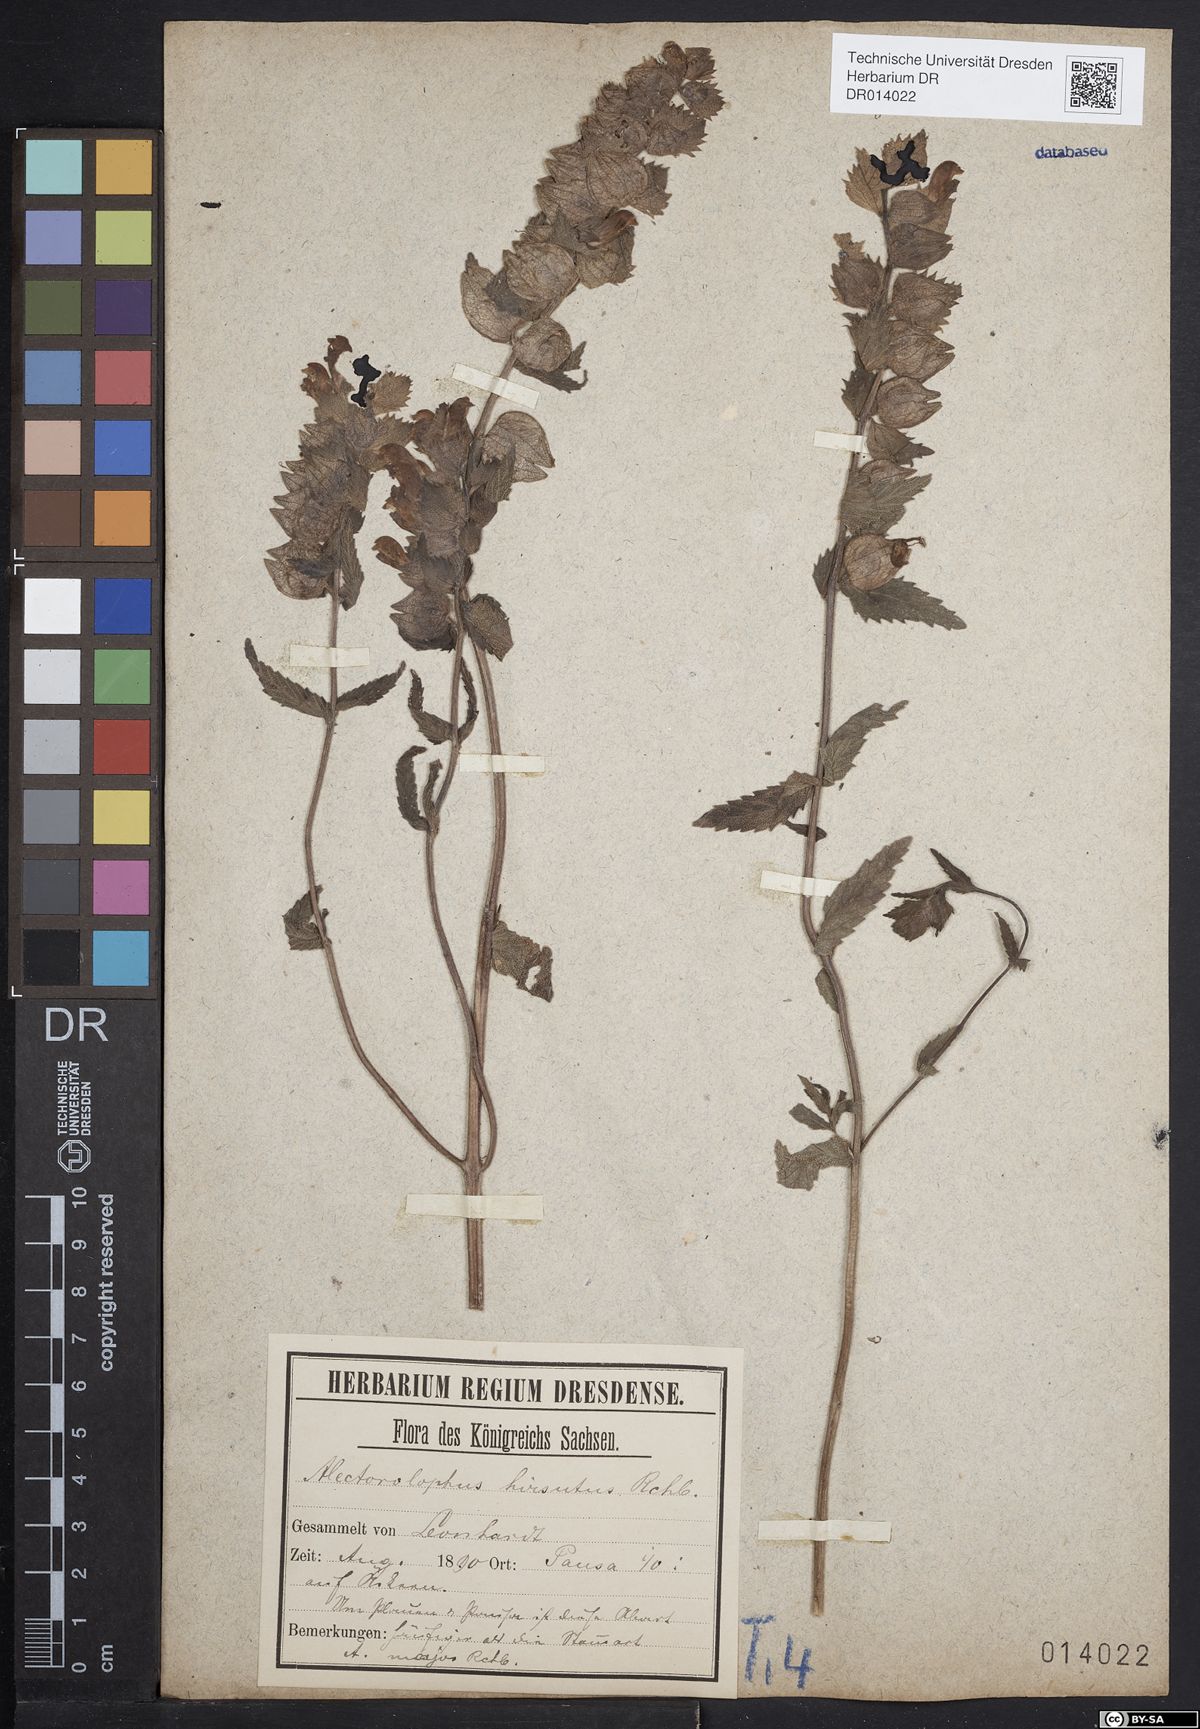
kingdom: Plantae
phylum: Tracheophyta
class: Magnoliopsida
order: Lamiales
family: Orobanchaceae
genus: Rhinanthus
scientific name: Rhinanthus alectorolophus
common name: Greater yellow-rattle
